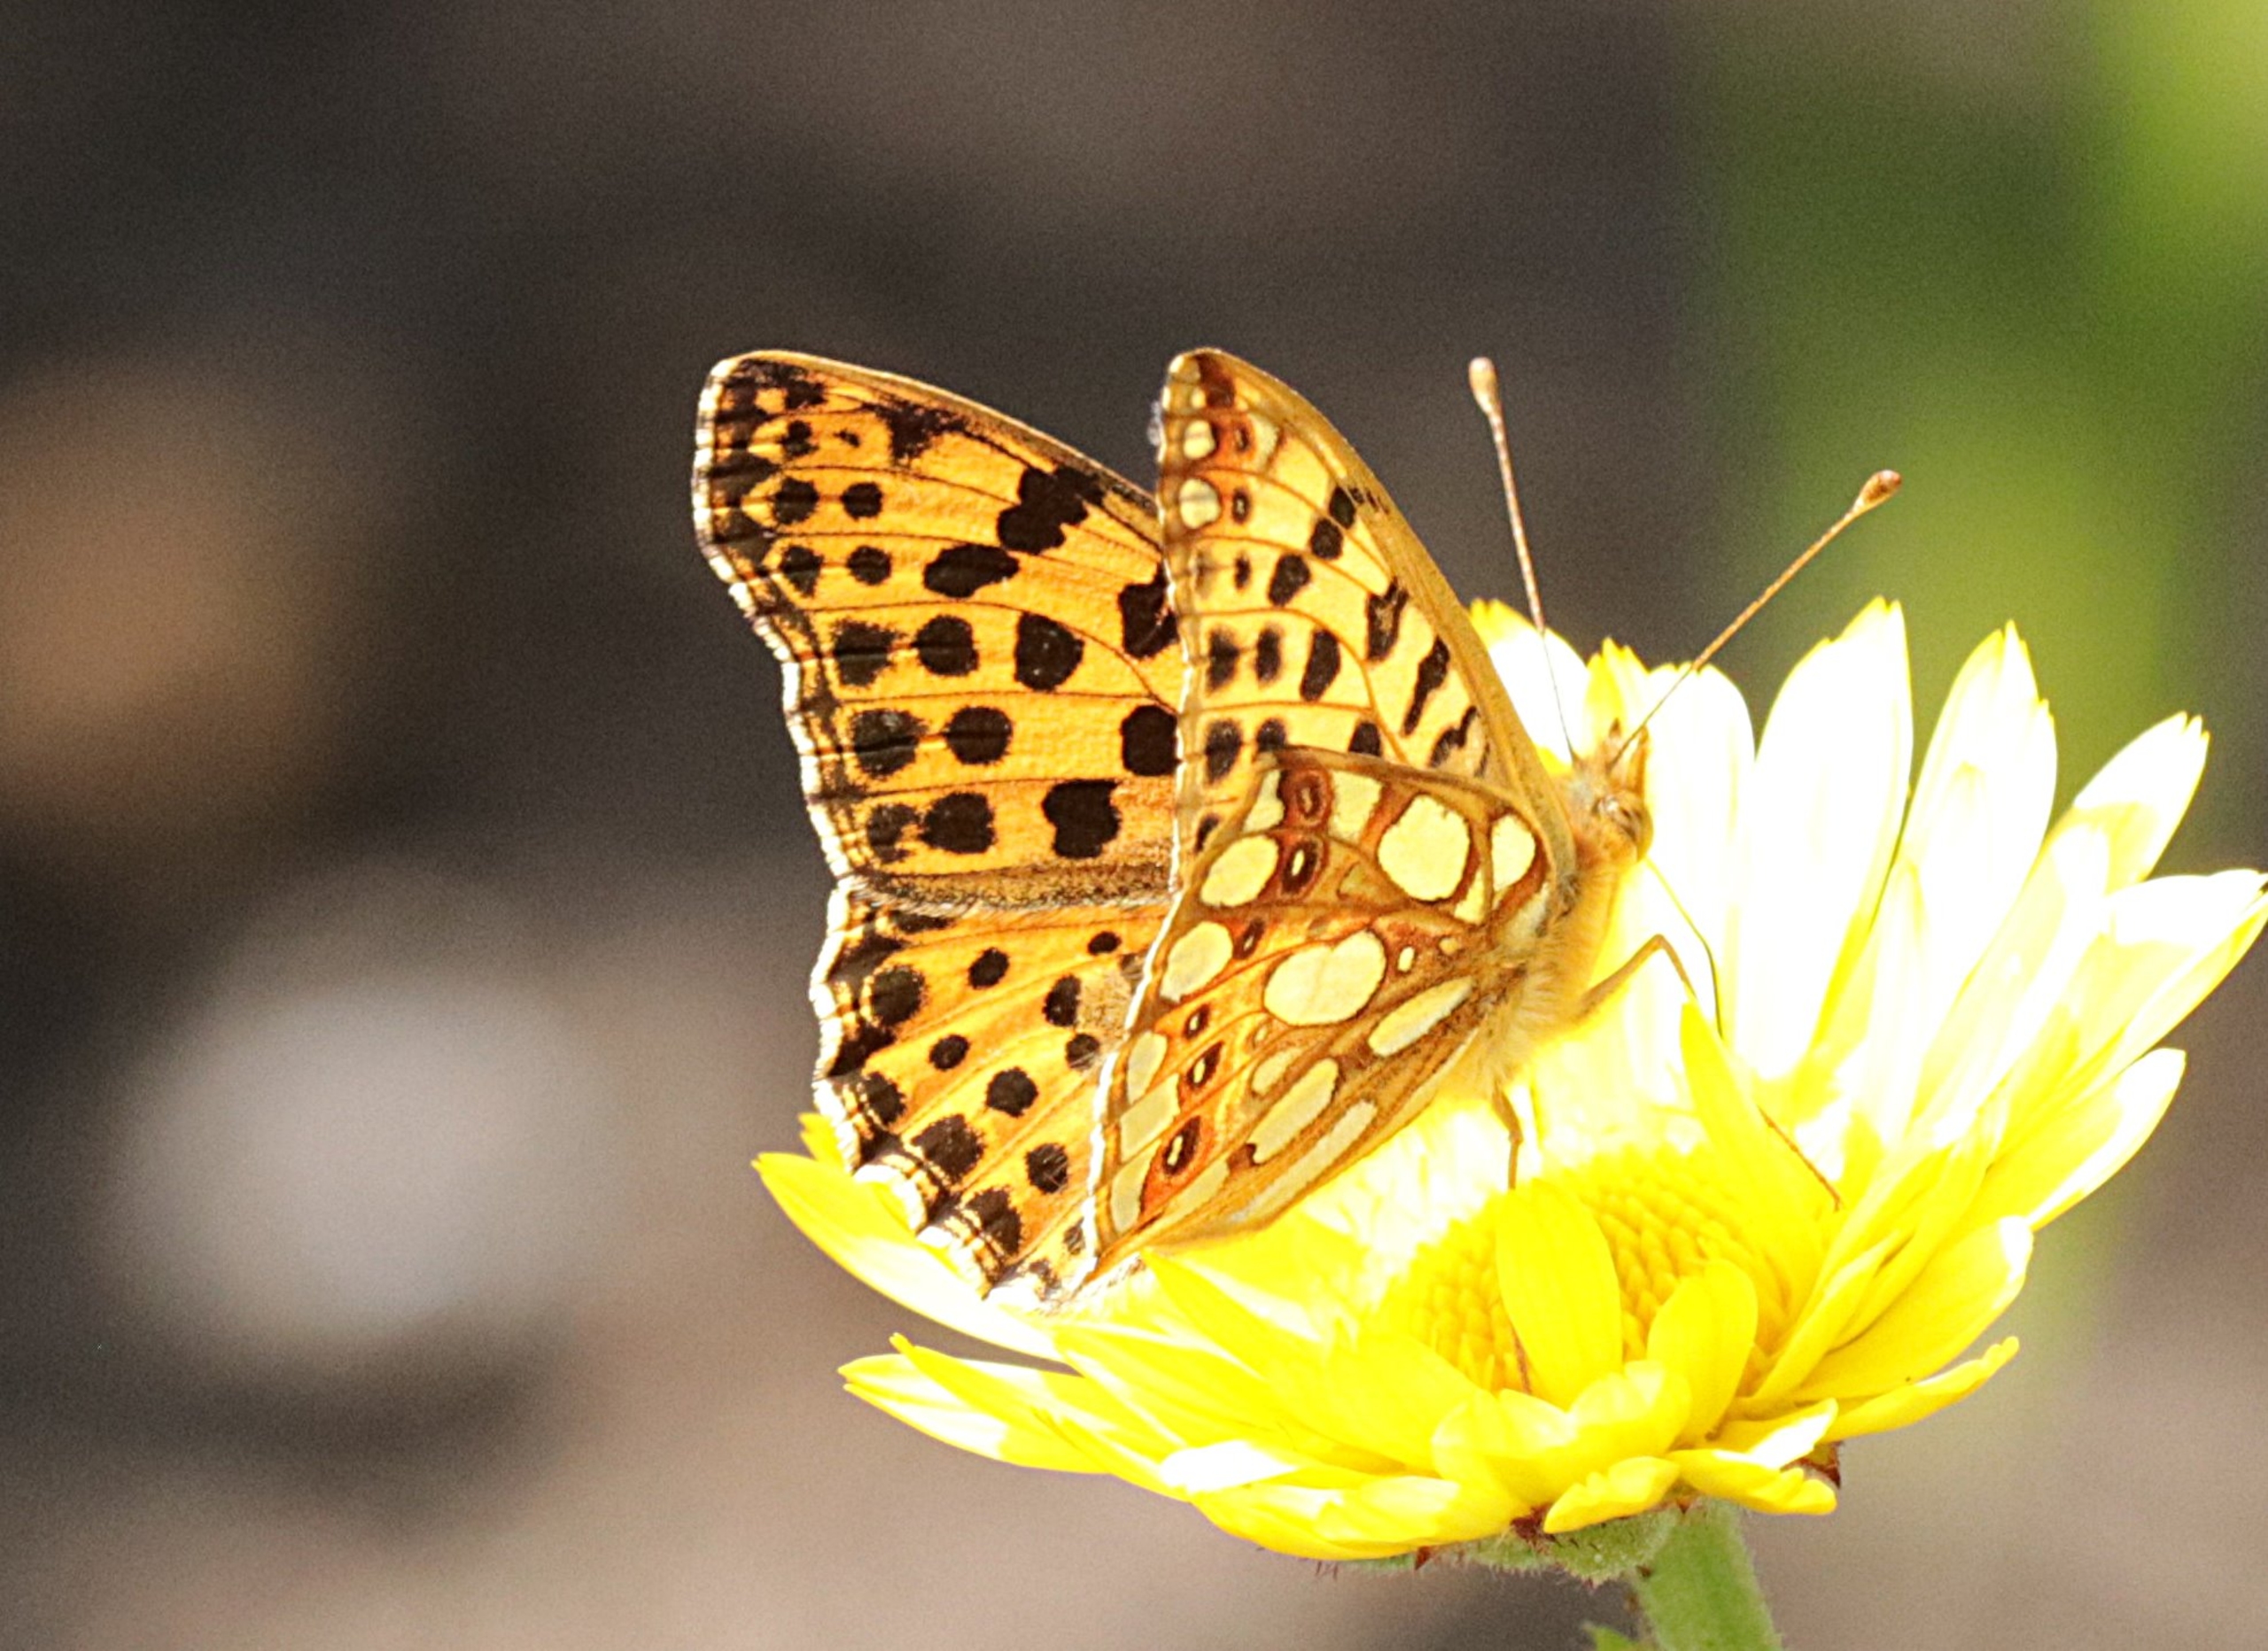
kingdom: Animalia
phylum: Arthropoda
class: Insecta
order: Lepidoptera
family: Nymphalidae
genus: Issoria
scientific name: Issoria lathonia
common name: Storplettet perlemorsommerfugl
